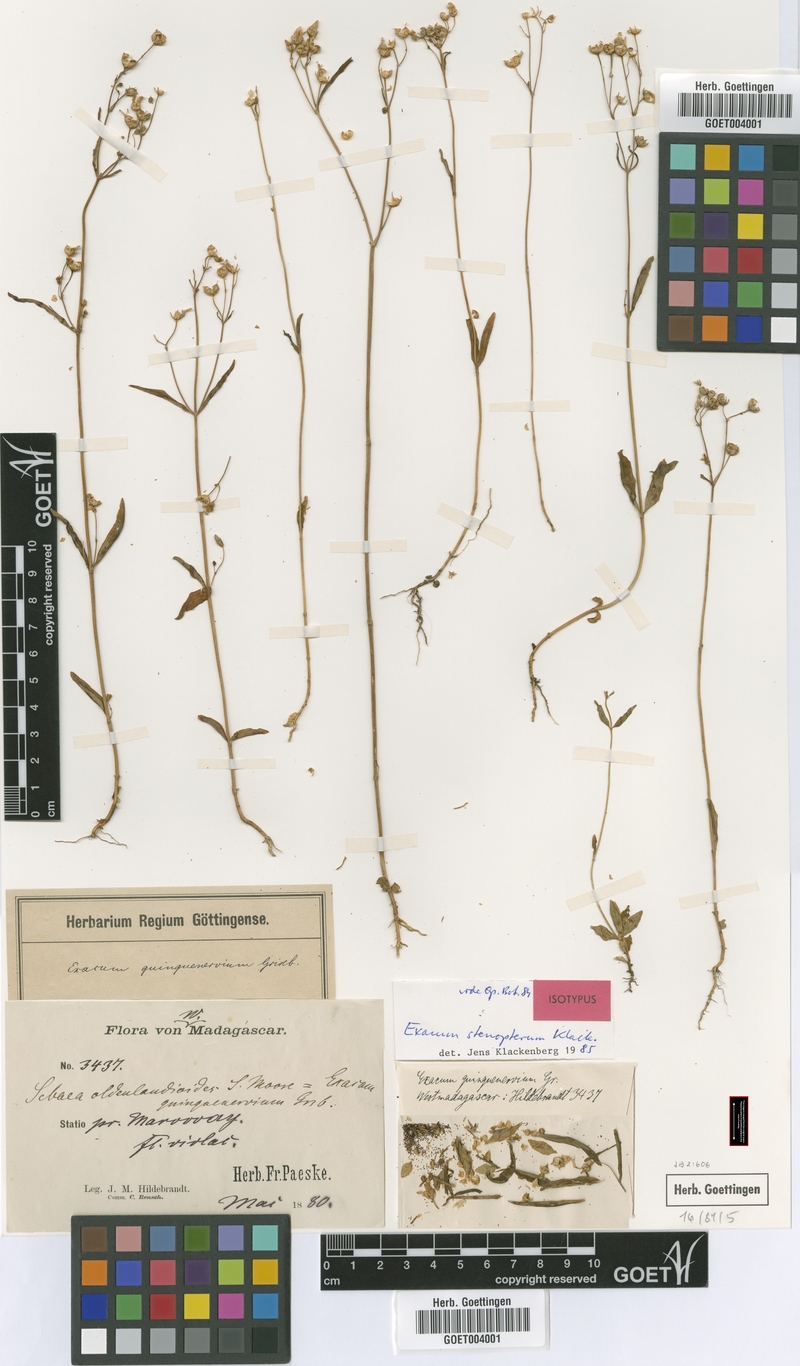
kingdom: Plantae
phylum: Tracheophyta
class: Magnoliopsida
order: Gentianales
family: Gentianaceae
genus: Exacum
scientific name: Exacum stenopterum
